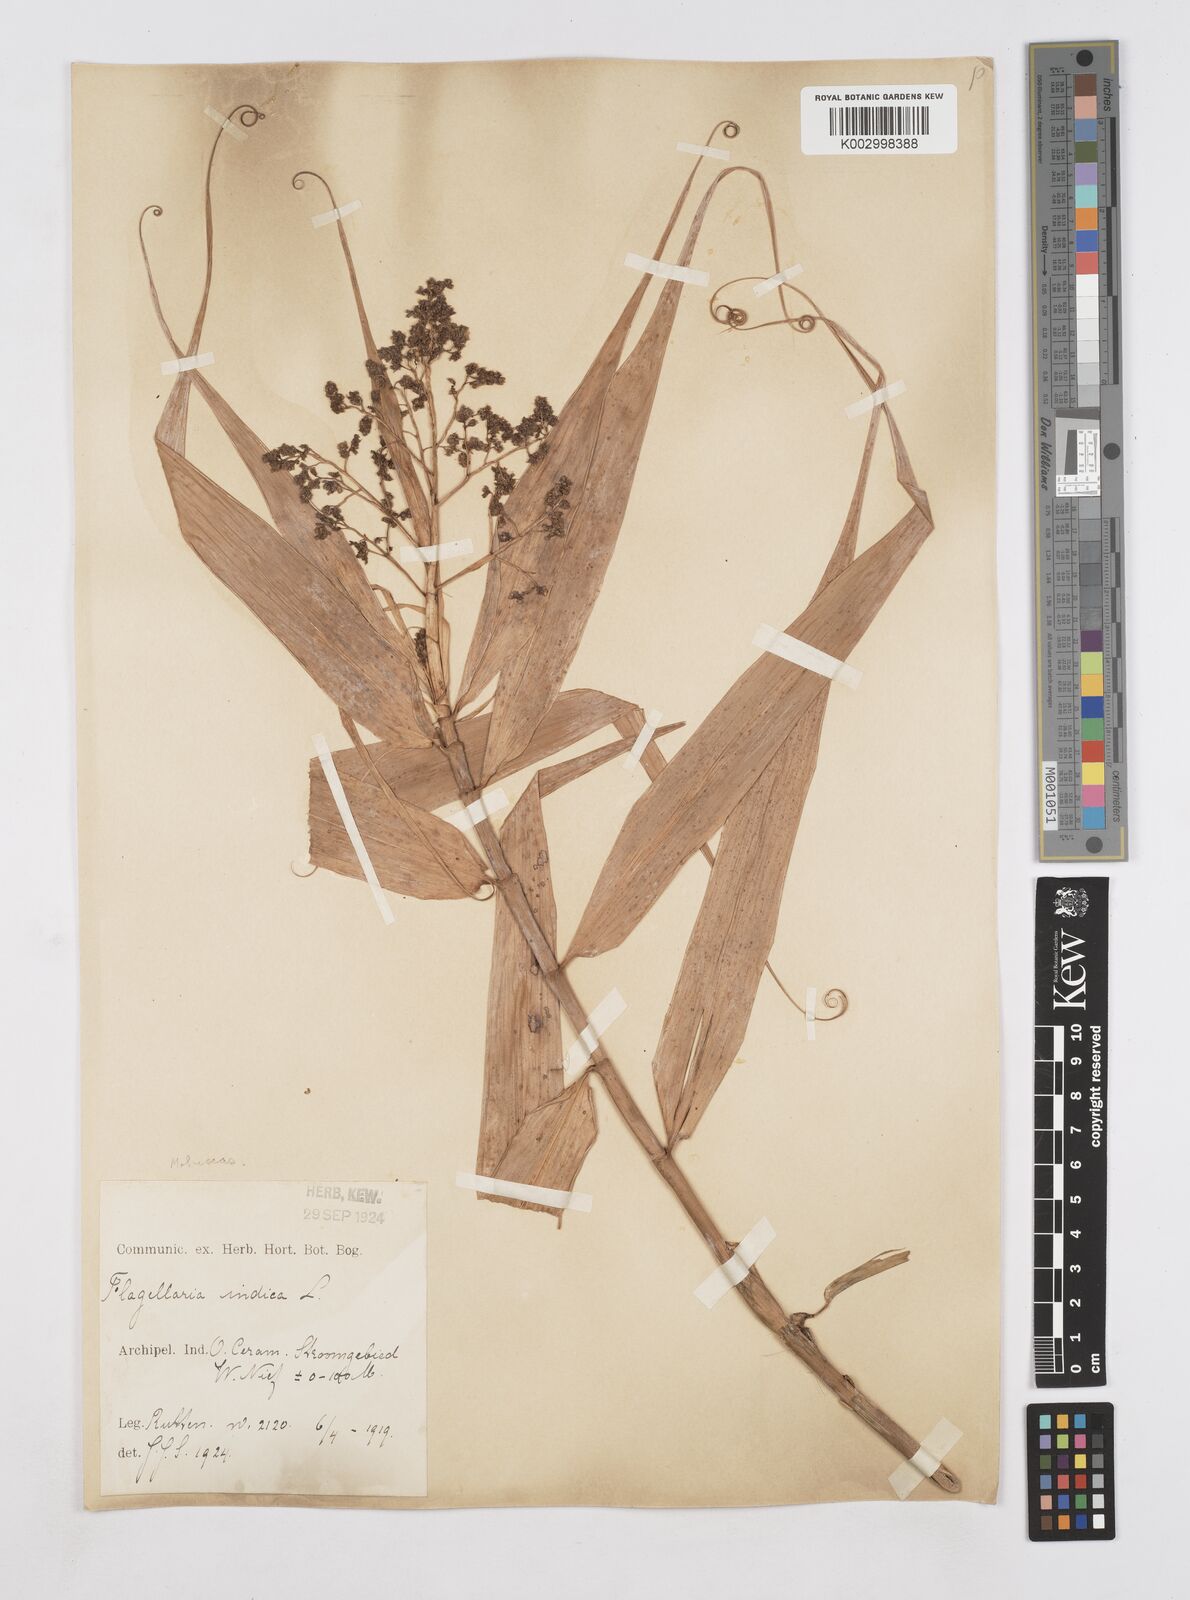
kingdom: Plantae
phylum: Tracheophyta
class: Liliopsida
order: Poales
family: Flagellariaceae
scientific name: Flagellariaceae
